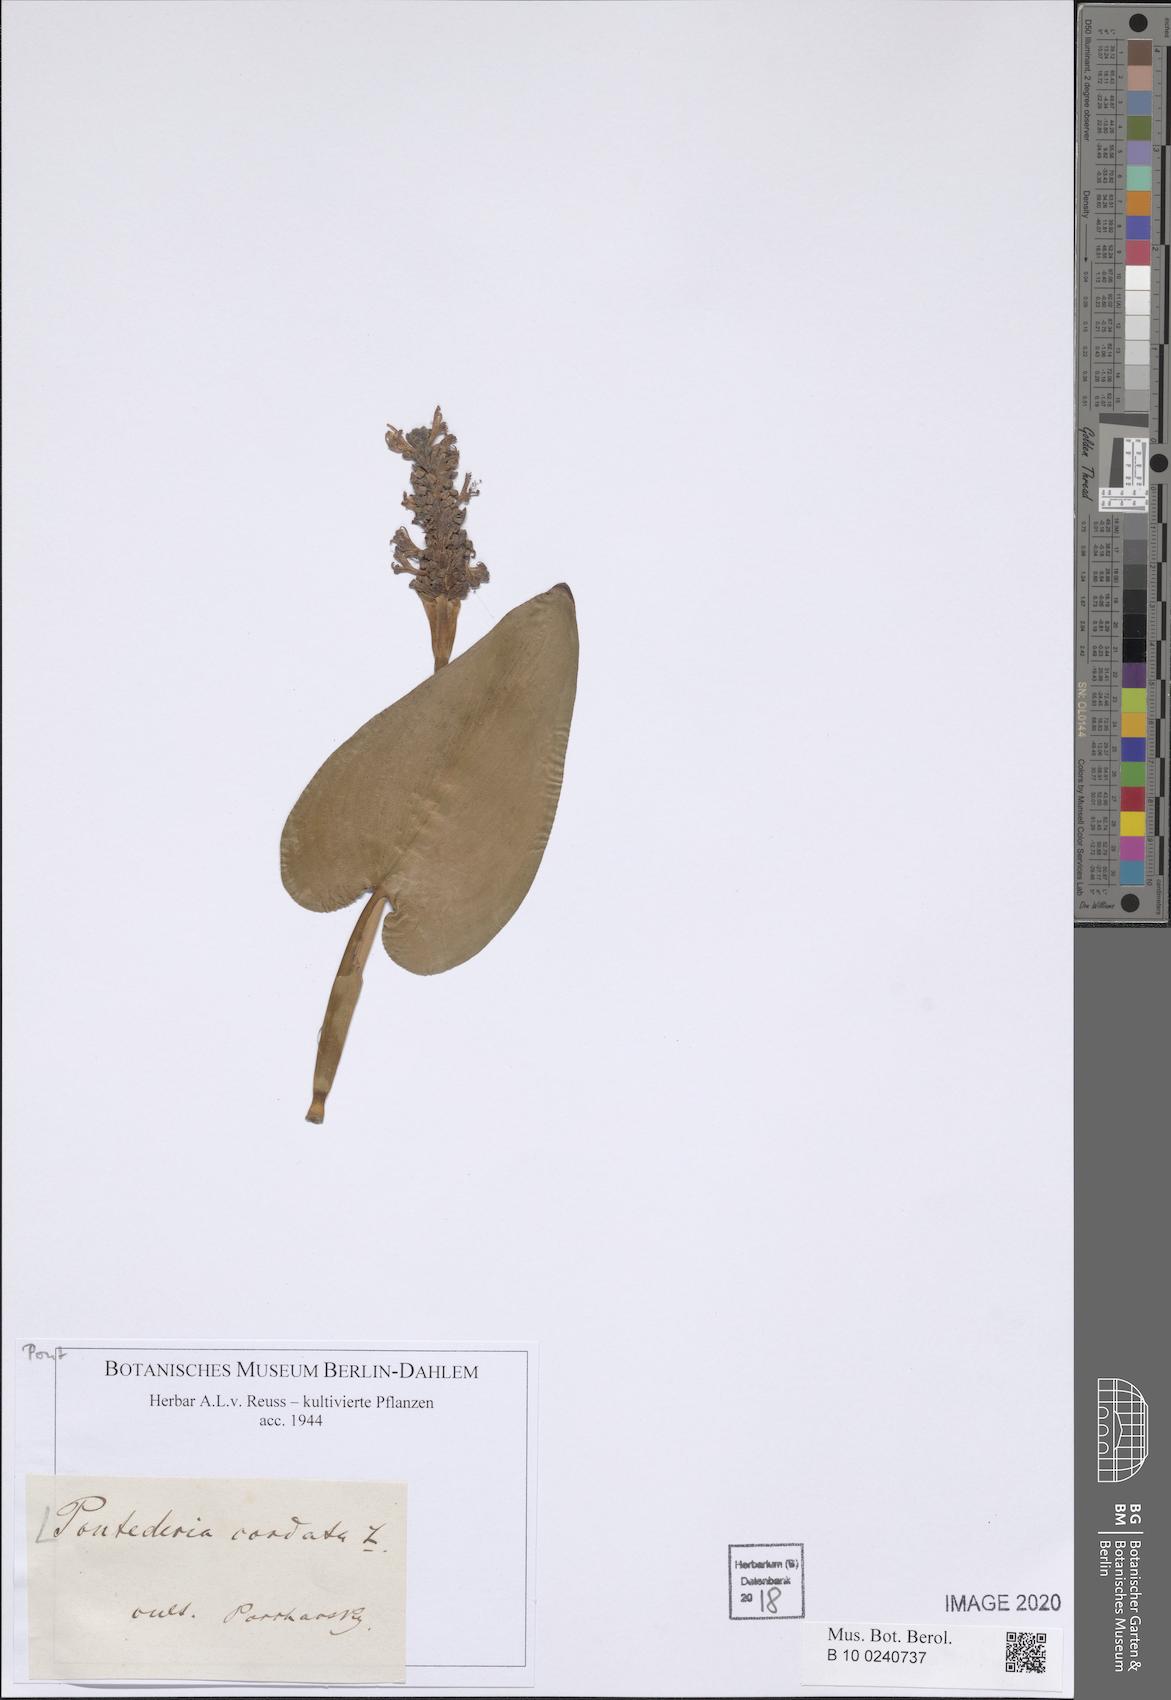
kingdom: Plantae
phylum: Tracheophyta
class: Liliopsida
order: Commelinales
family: Pontederiaceae
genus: Pontederia
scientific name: Pontederia cordata
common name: Pickerelweed
